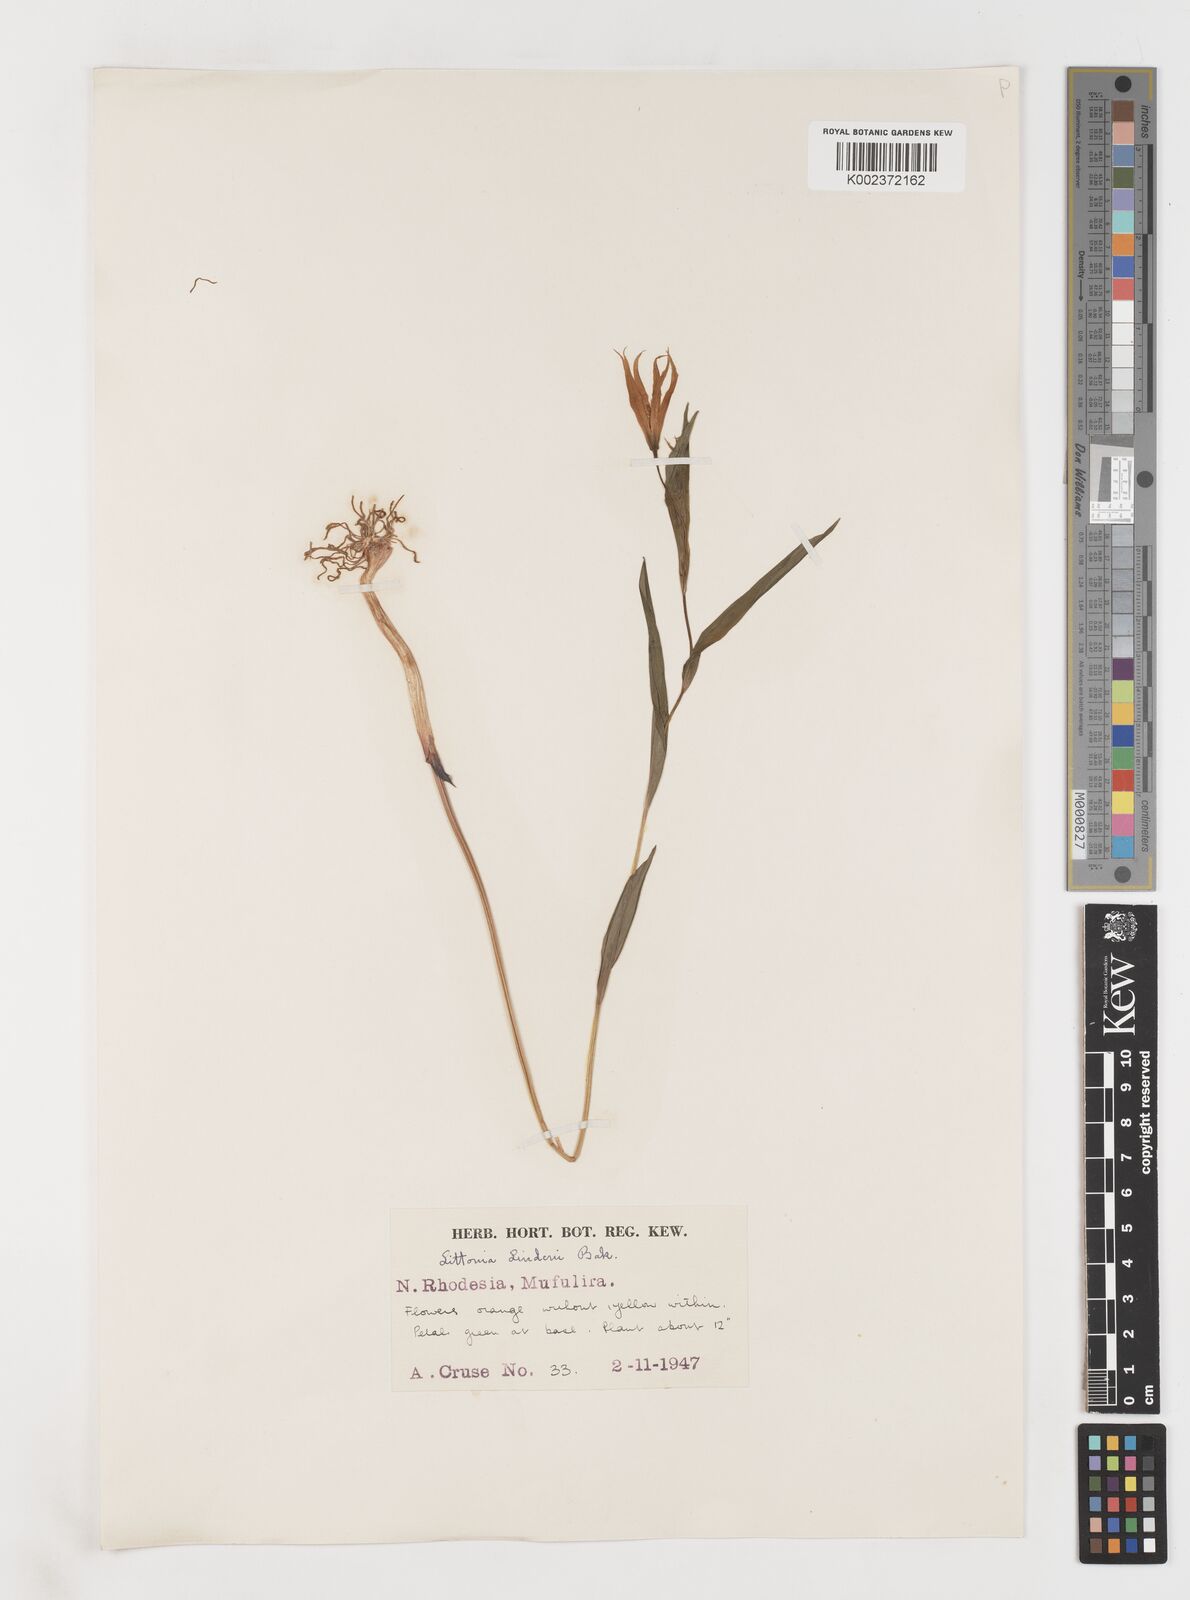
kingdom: Plantae
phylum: Tracheophyta
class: Liliopsida
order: Liliales
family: Colchicaceae
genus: Gloriosa
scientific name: Gloriosa lindenii
